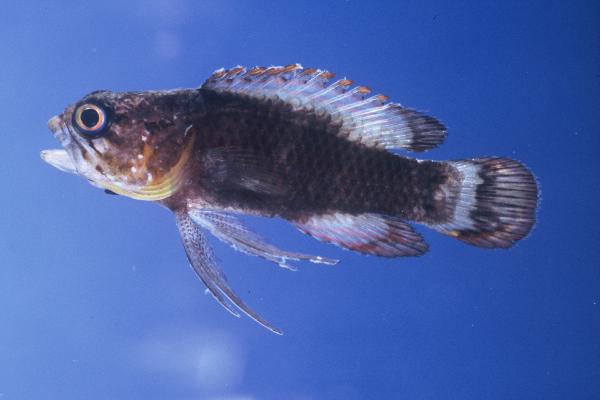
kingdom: Animalia
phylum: Chordata
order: Perciformes
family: Plesiopidae
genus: Plesiops
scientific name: Plesiops coeruleolineatus
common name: Crimsontip longfin
